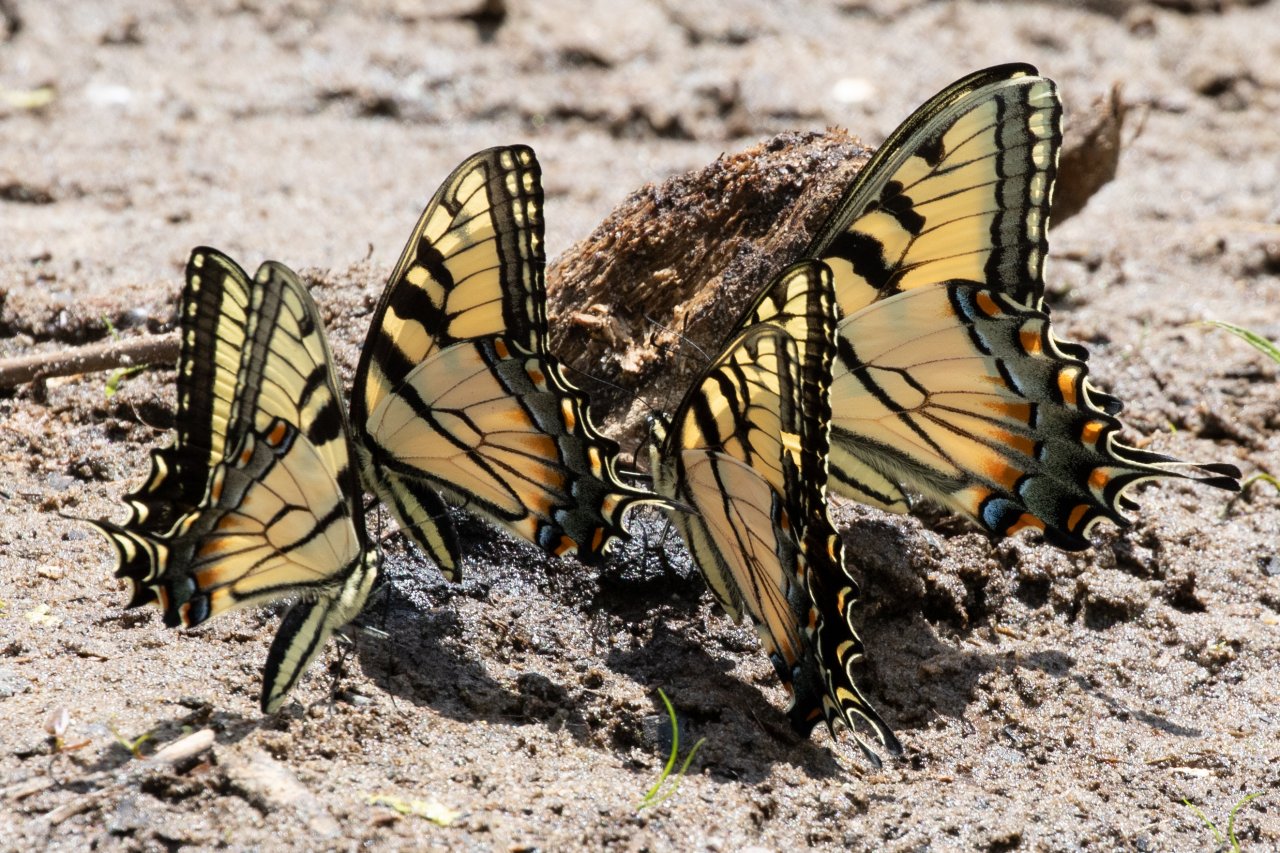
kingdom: Animalia
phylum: Arthropoda
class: Insecta
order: Lepidoptera
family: Papilionidae
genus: Pterourus
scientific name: Pterourus glaucus
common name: Eastern Tiger Swallowtail
